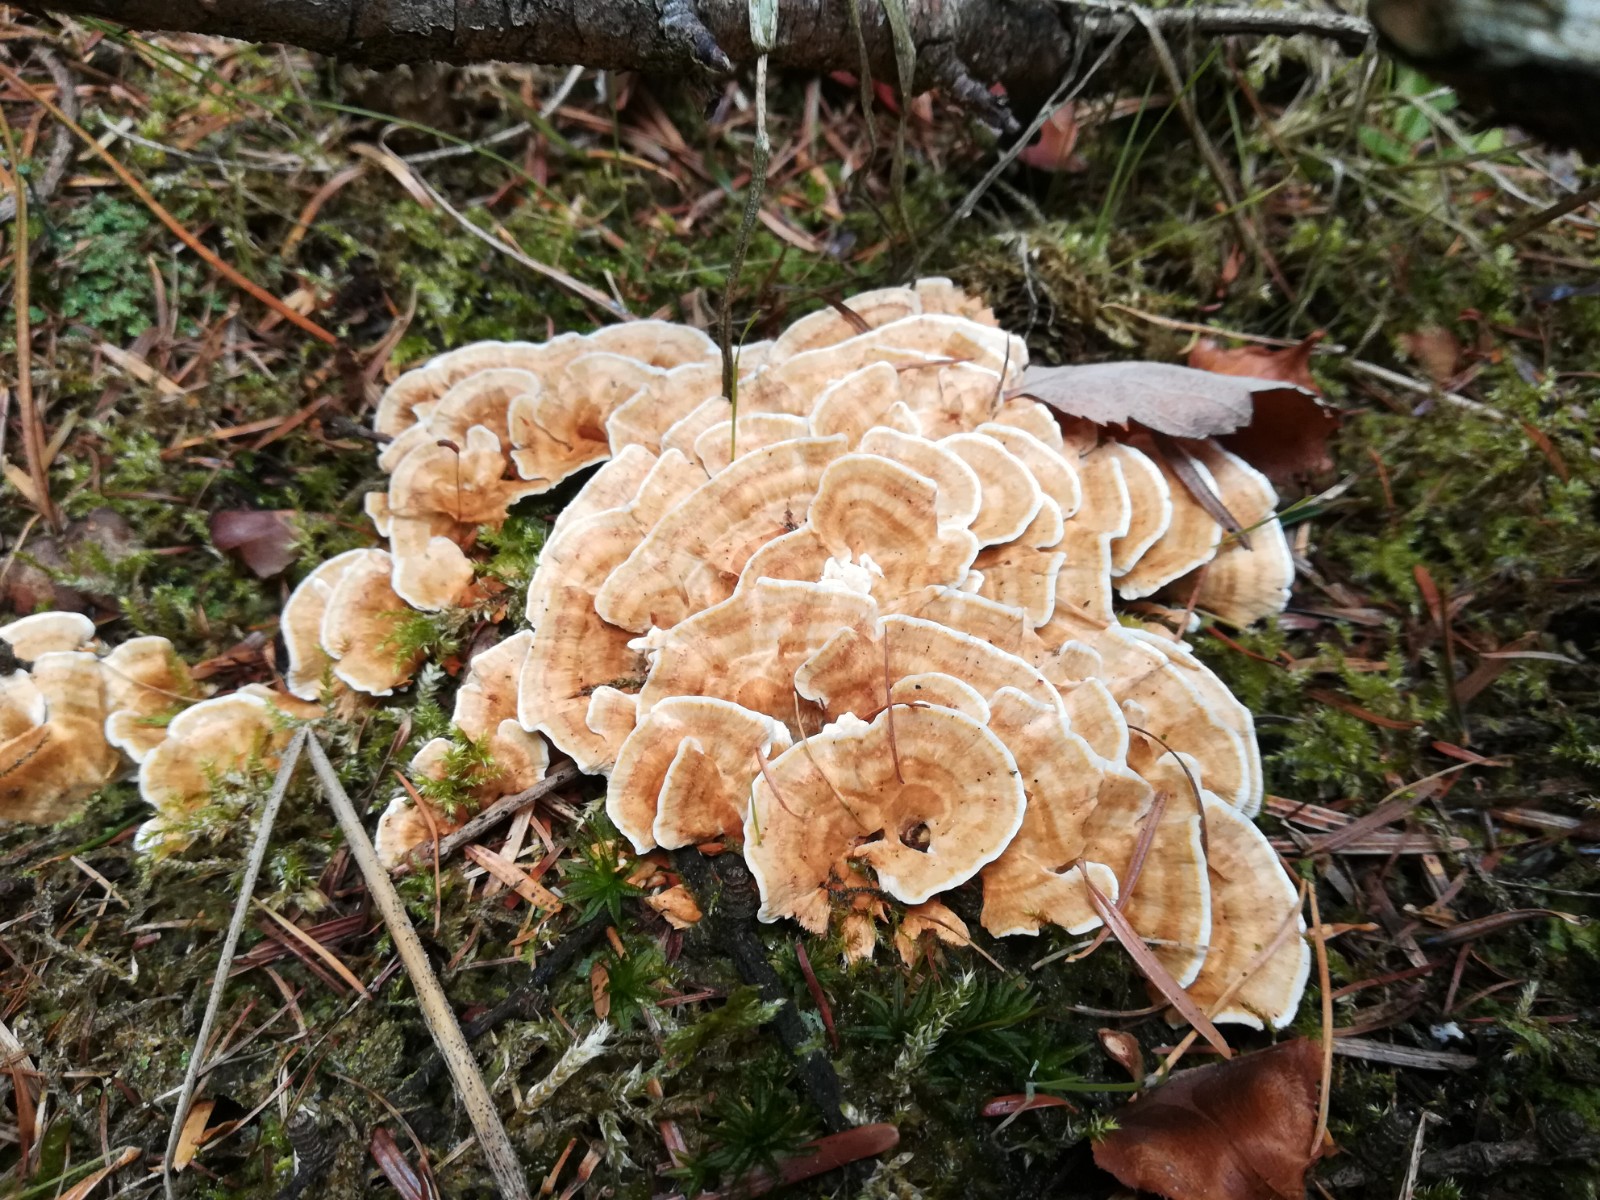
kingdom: Fungi
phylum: Basidiomycota
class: Agaricomycetes
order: Polyporales
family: Polyporaceae
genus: Trametes
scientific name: Trametes versicolor
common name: broget læderporesvamp
